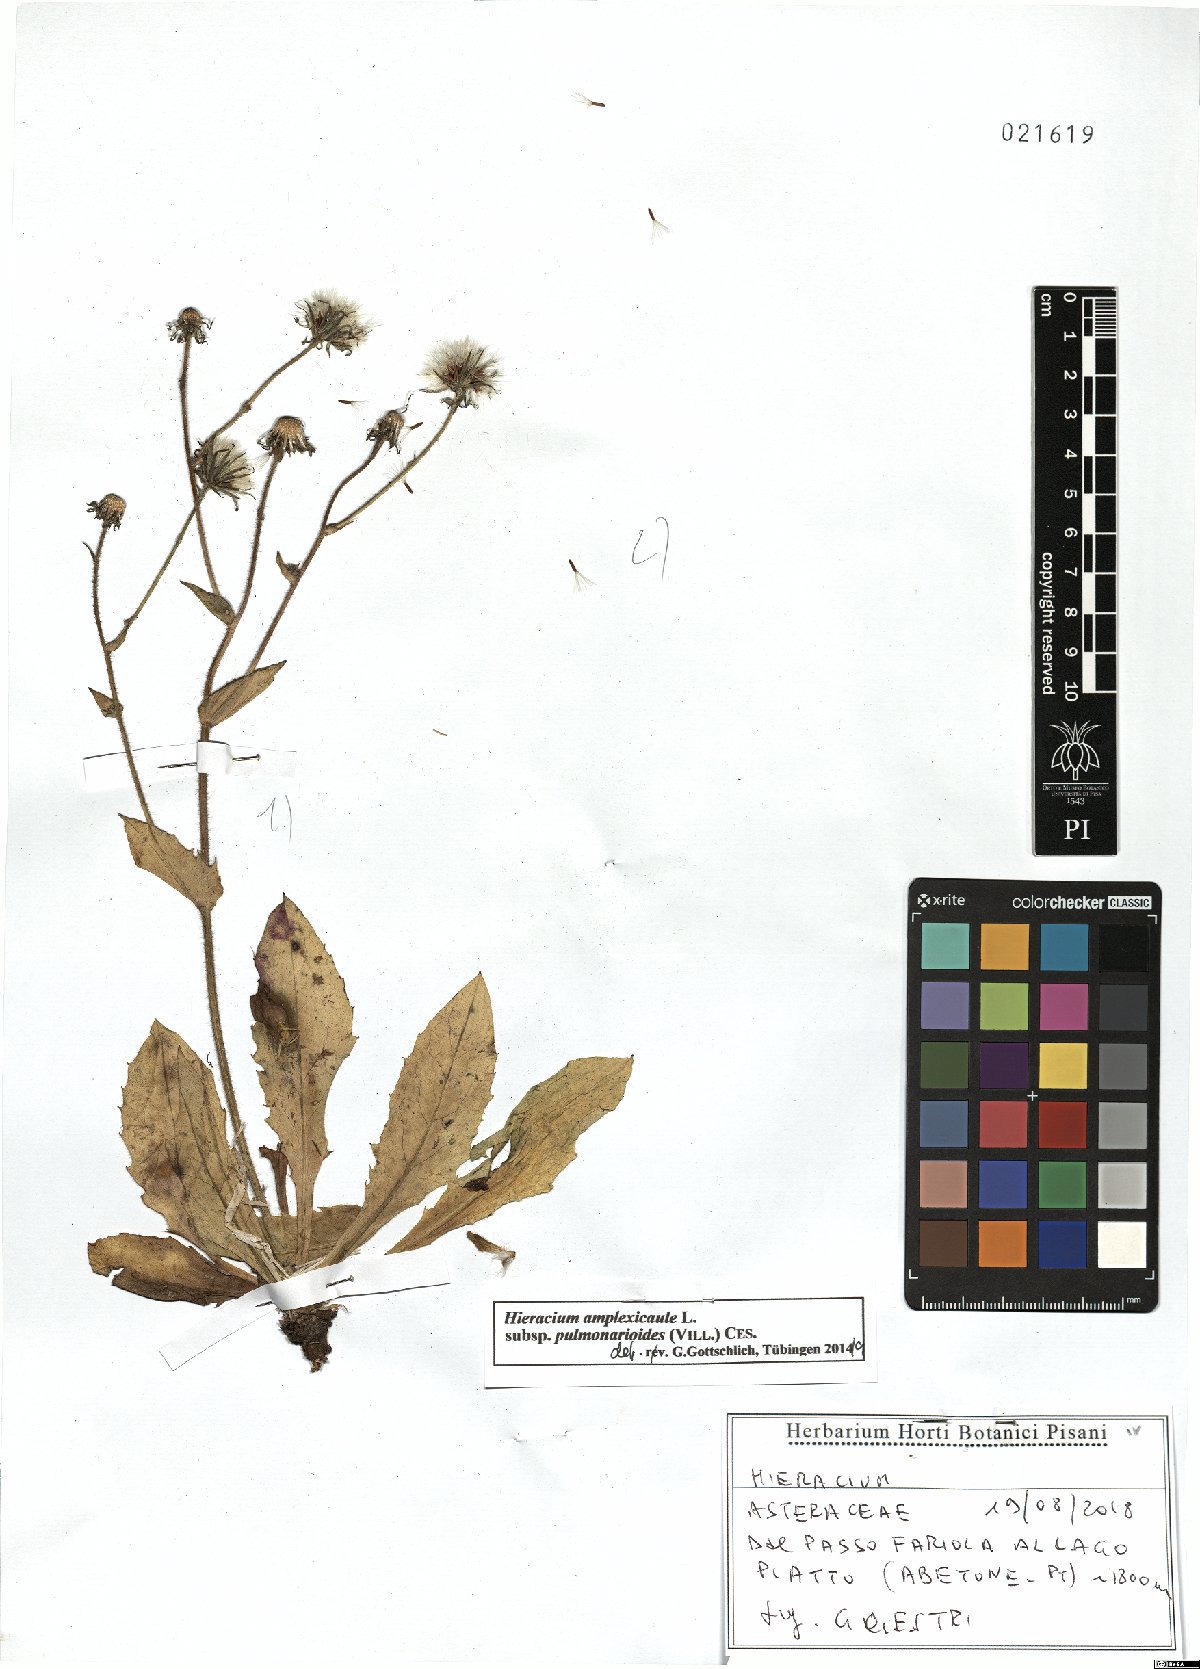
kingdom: Plantae
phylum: Tracheophyta
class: Magnoliopsida
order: Asterales
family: Asteraceae
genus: Hieracium
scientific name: Hieracium pulmonarioides
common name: Wall hawkweed
